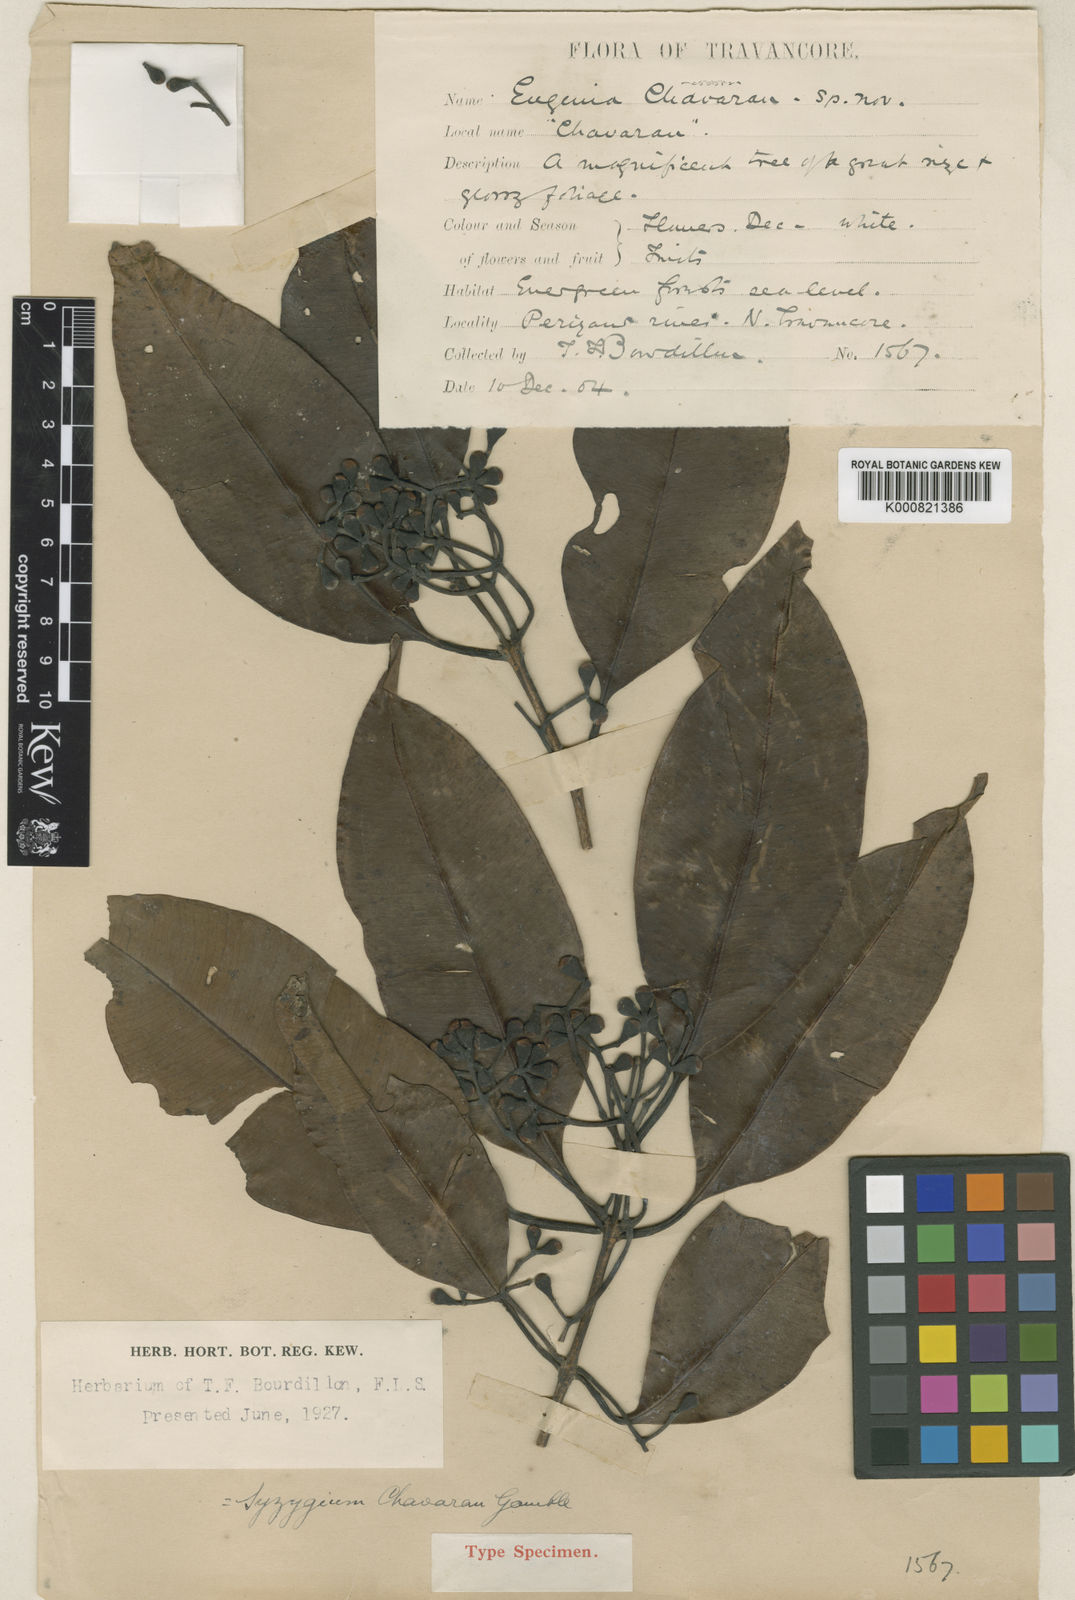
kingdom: Plantae
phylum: Tracheophyta
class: Magnoliopsida
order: Myrtales
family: Myrtaceae
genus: Syzygium
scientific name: Syzygium chavaran
